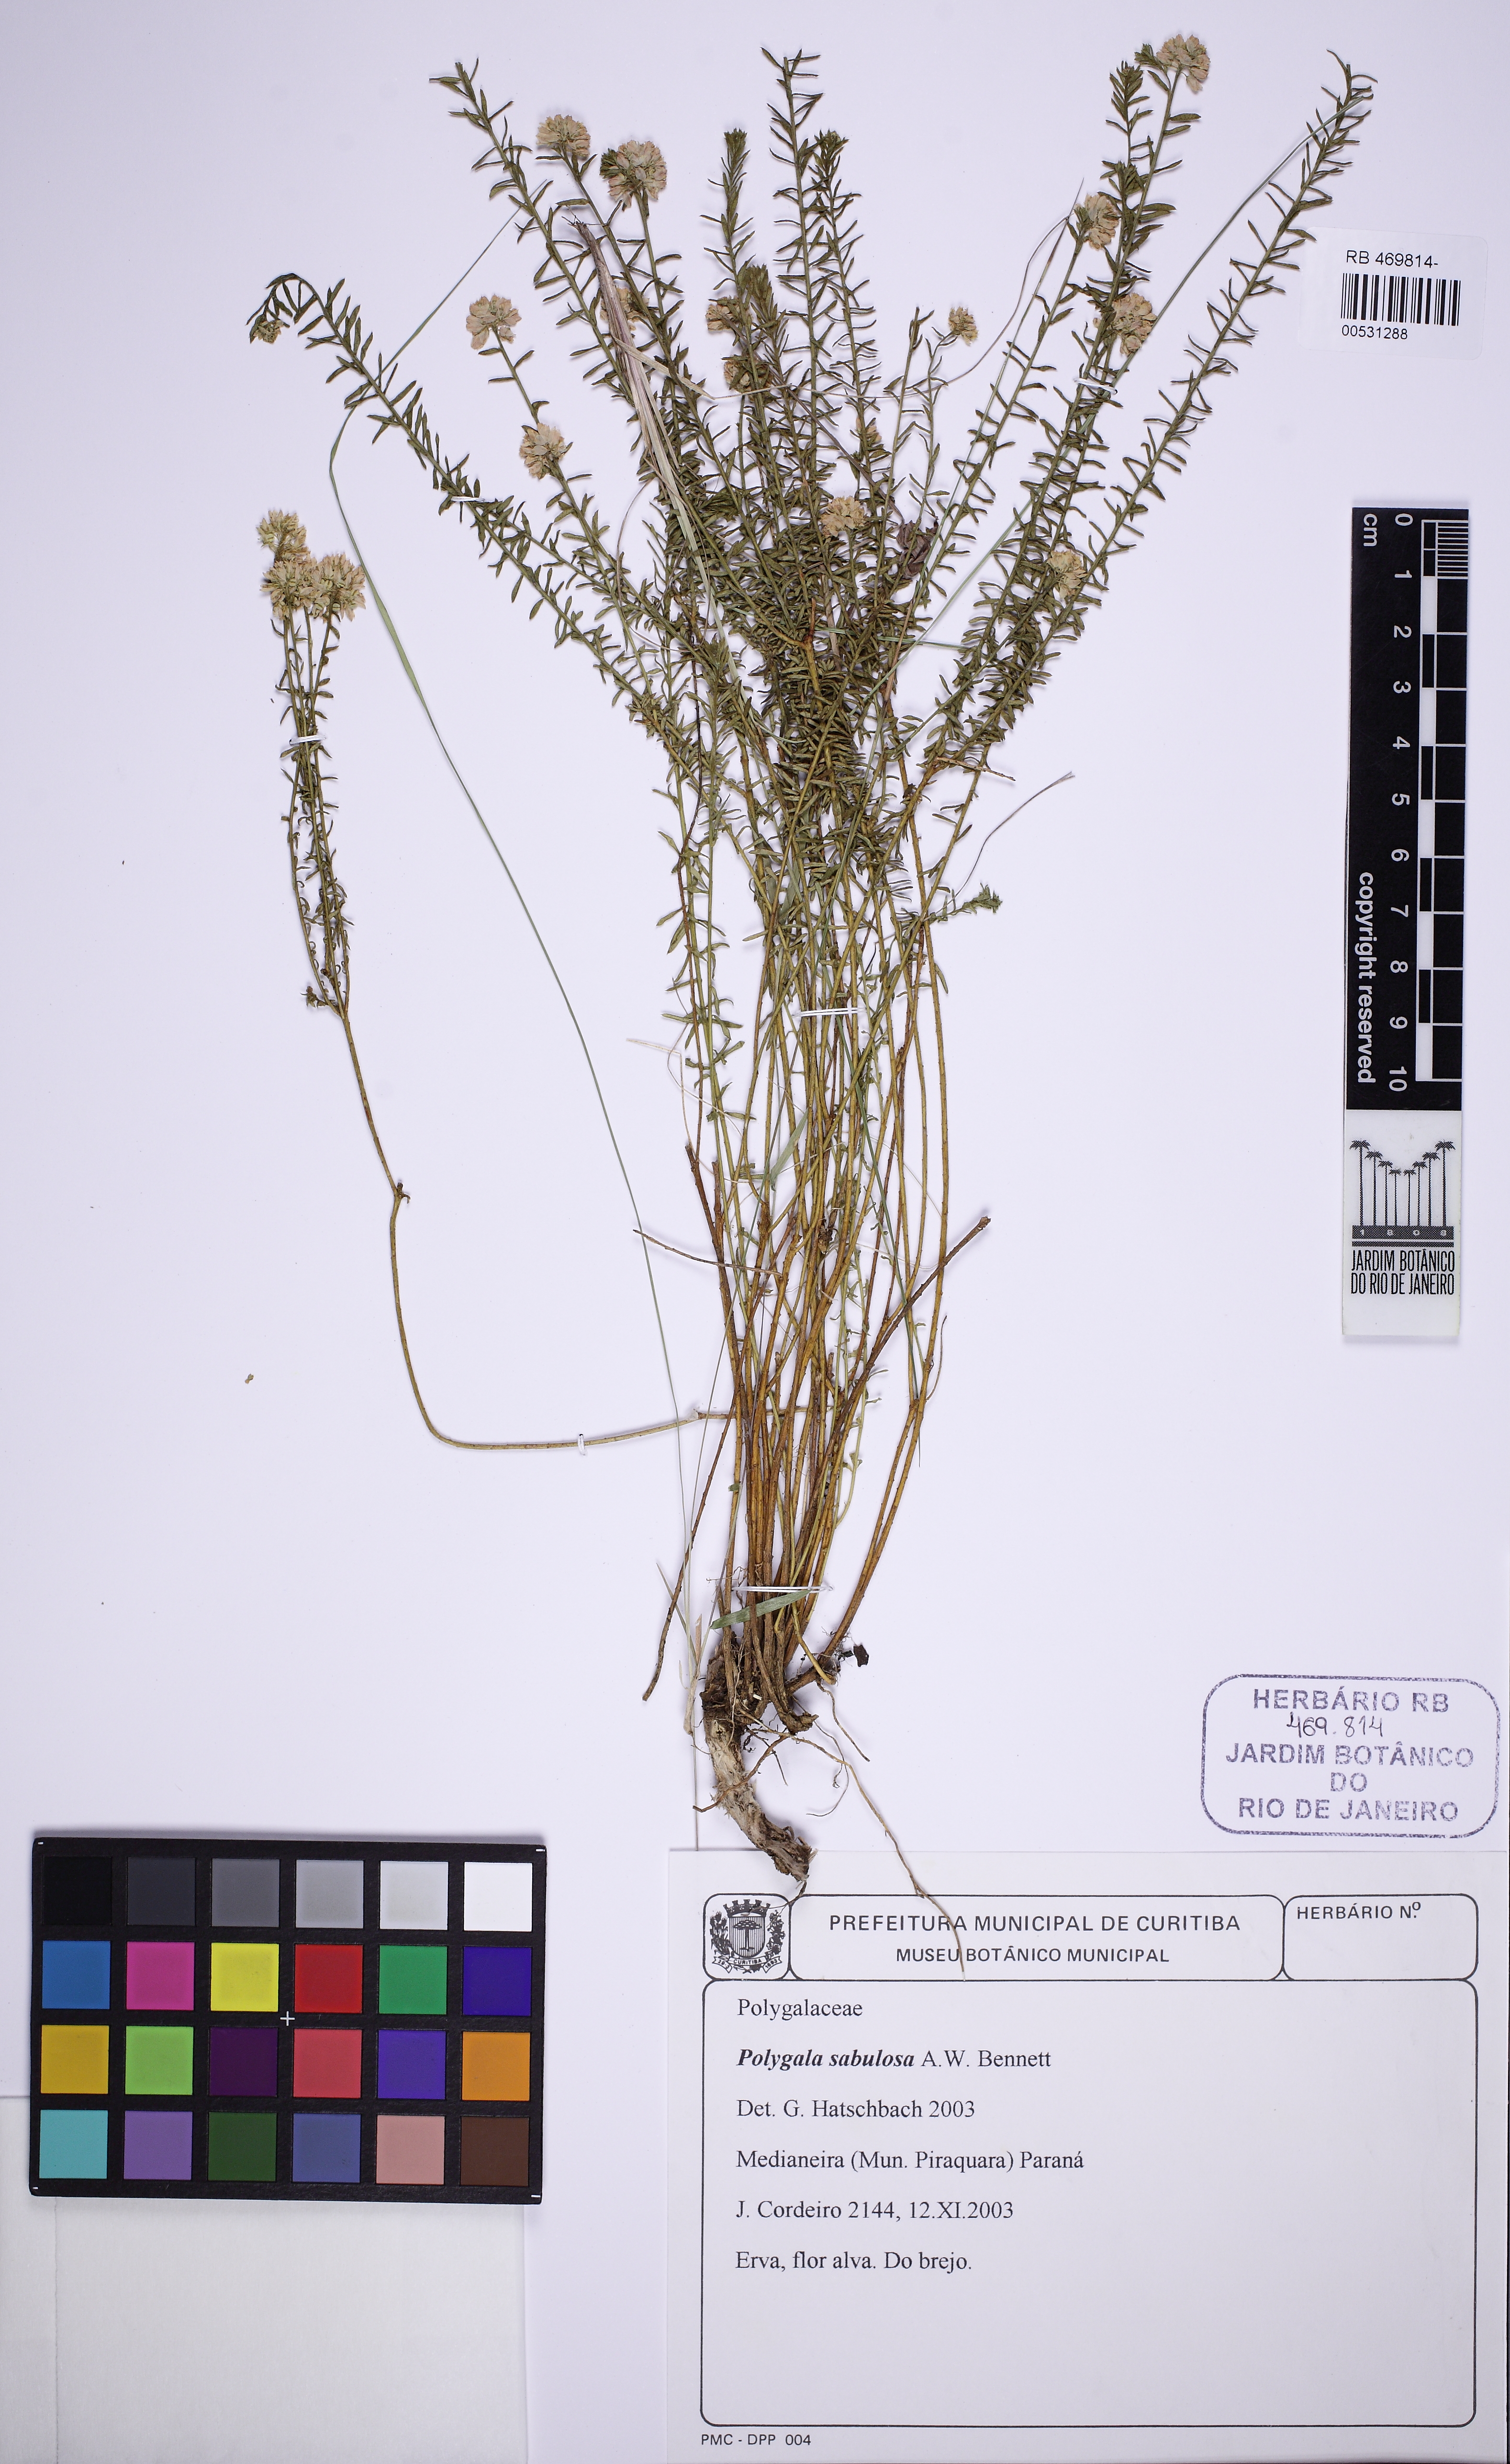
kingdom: Plantae
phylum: Tracheophyta
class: Magnoliopsida
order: Fabales
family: Polygalaceae
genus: Polygala
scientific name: Polygala sellowiana
